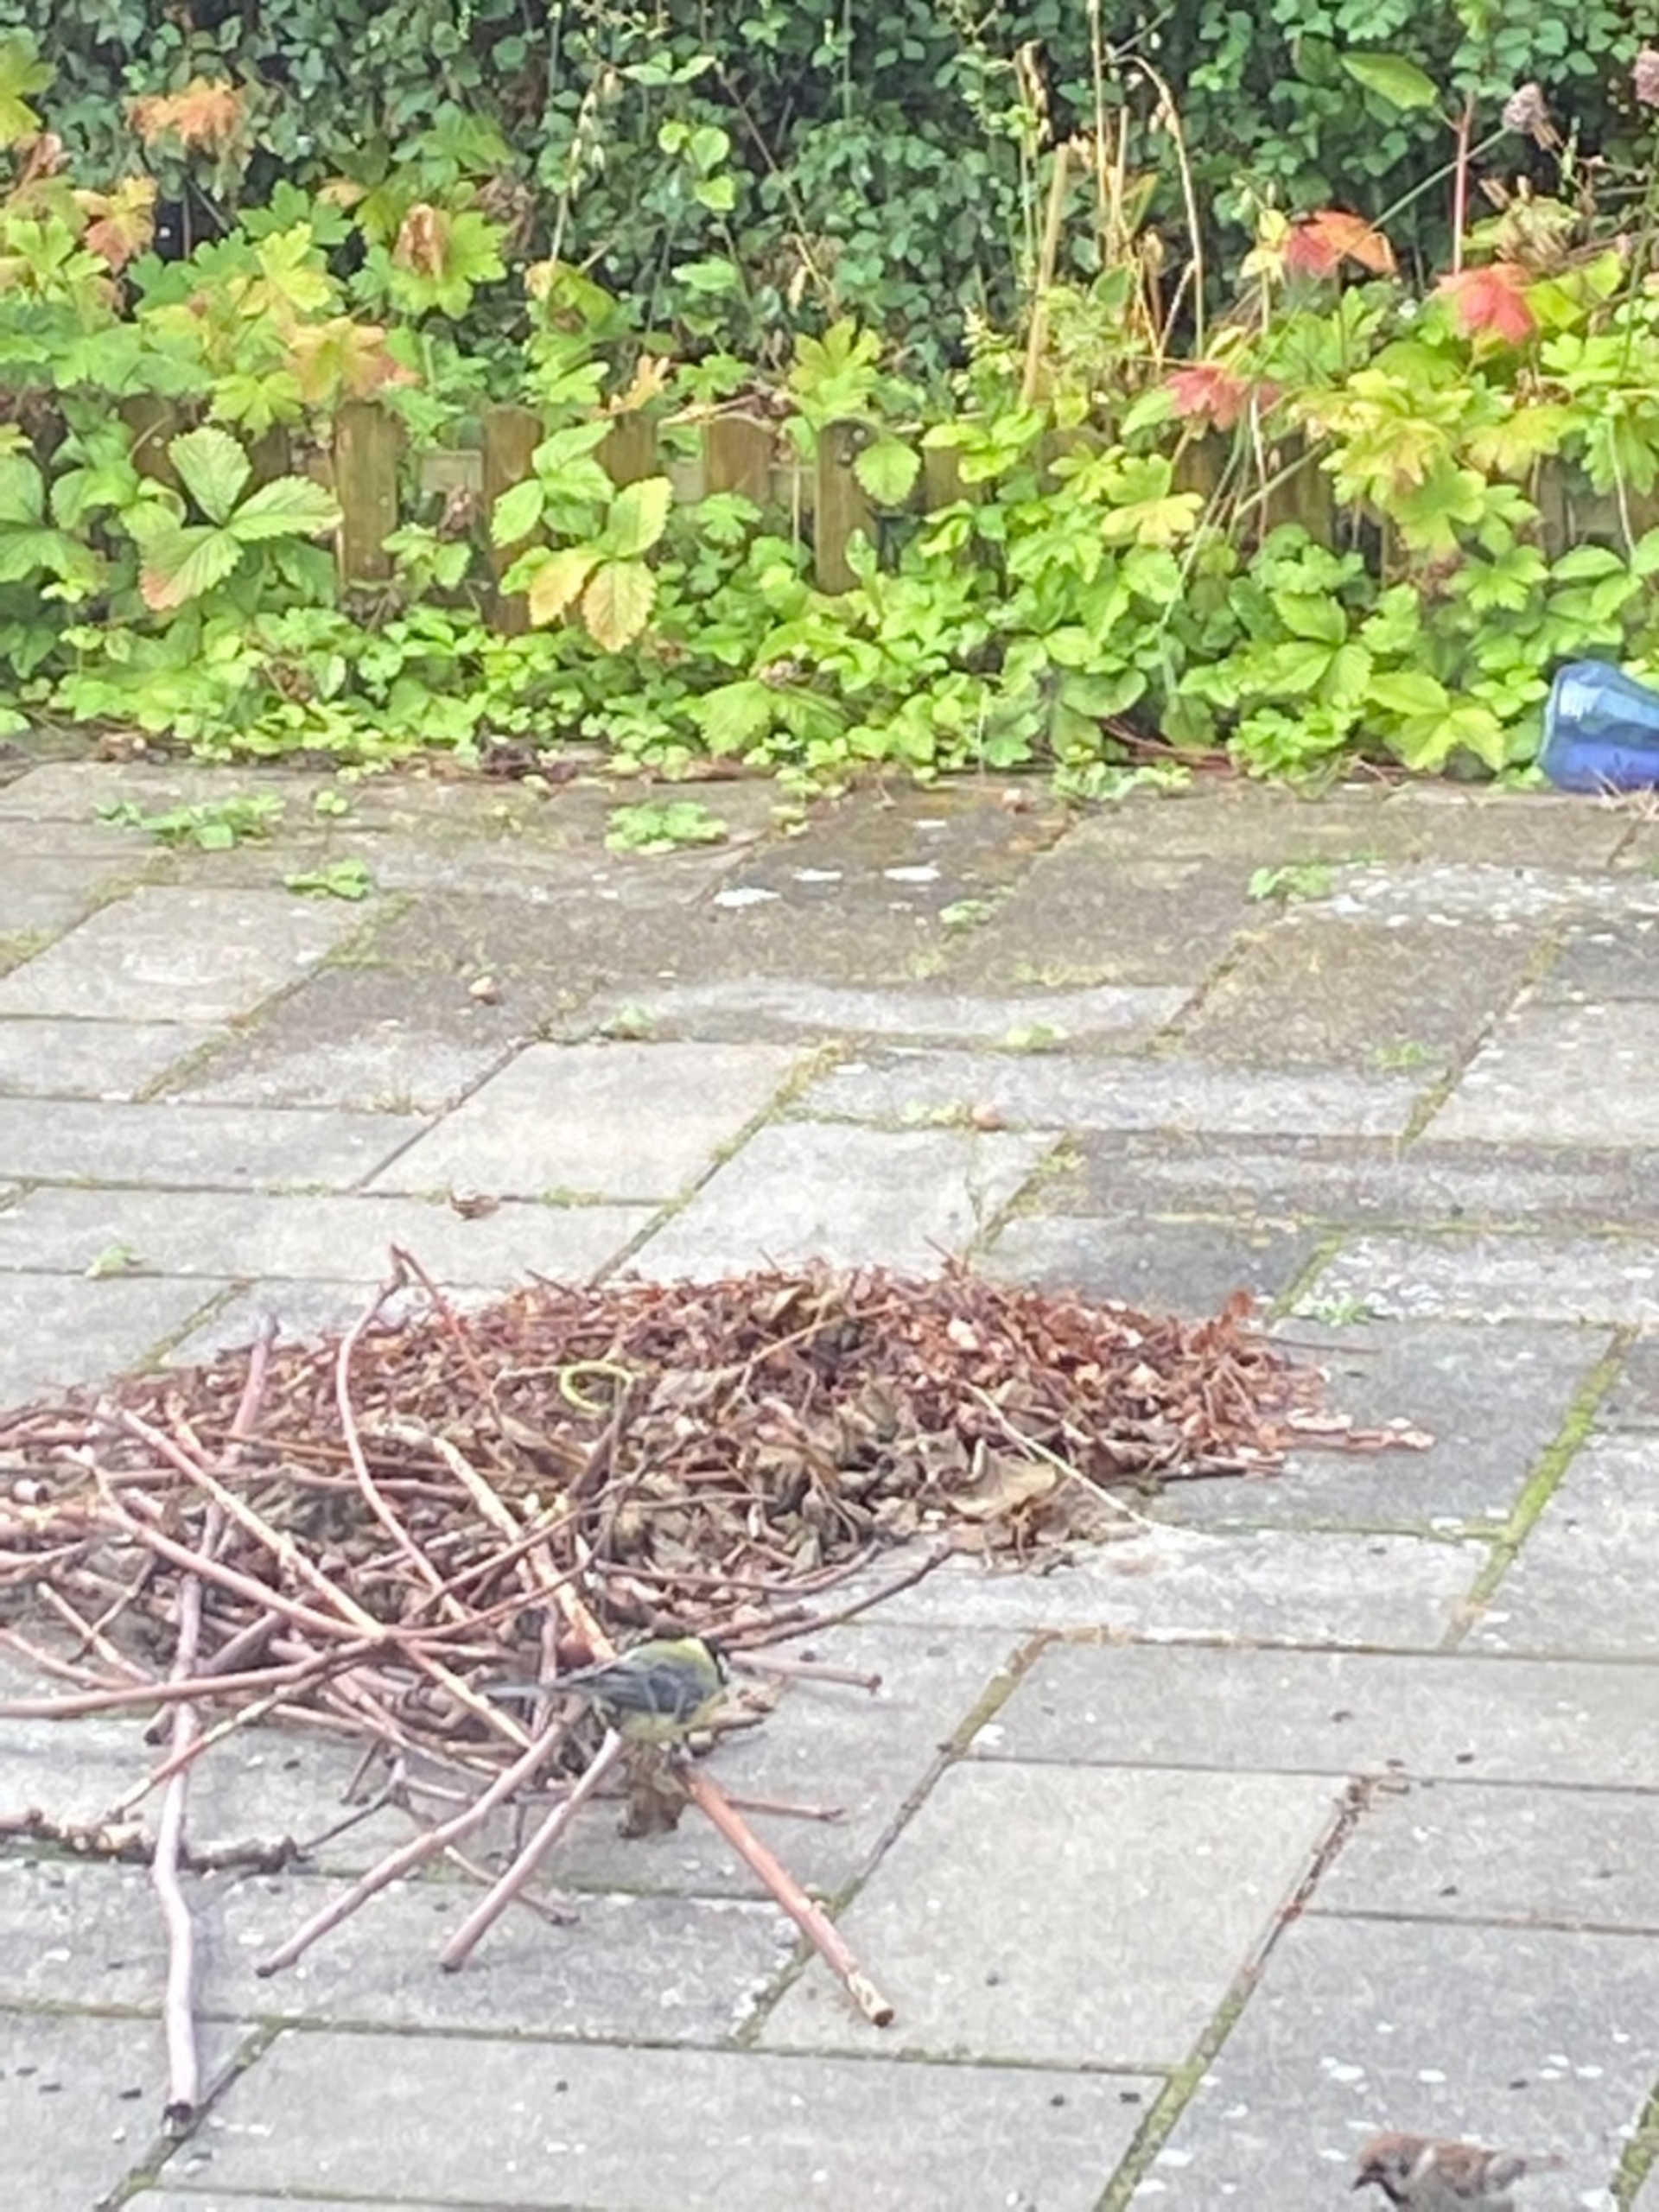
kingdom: Animalia
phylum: Chordata
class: Aves
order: Passeriformes
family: Paridae
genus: Parus
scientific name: Parus major
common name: Musvit
